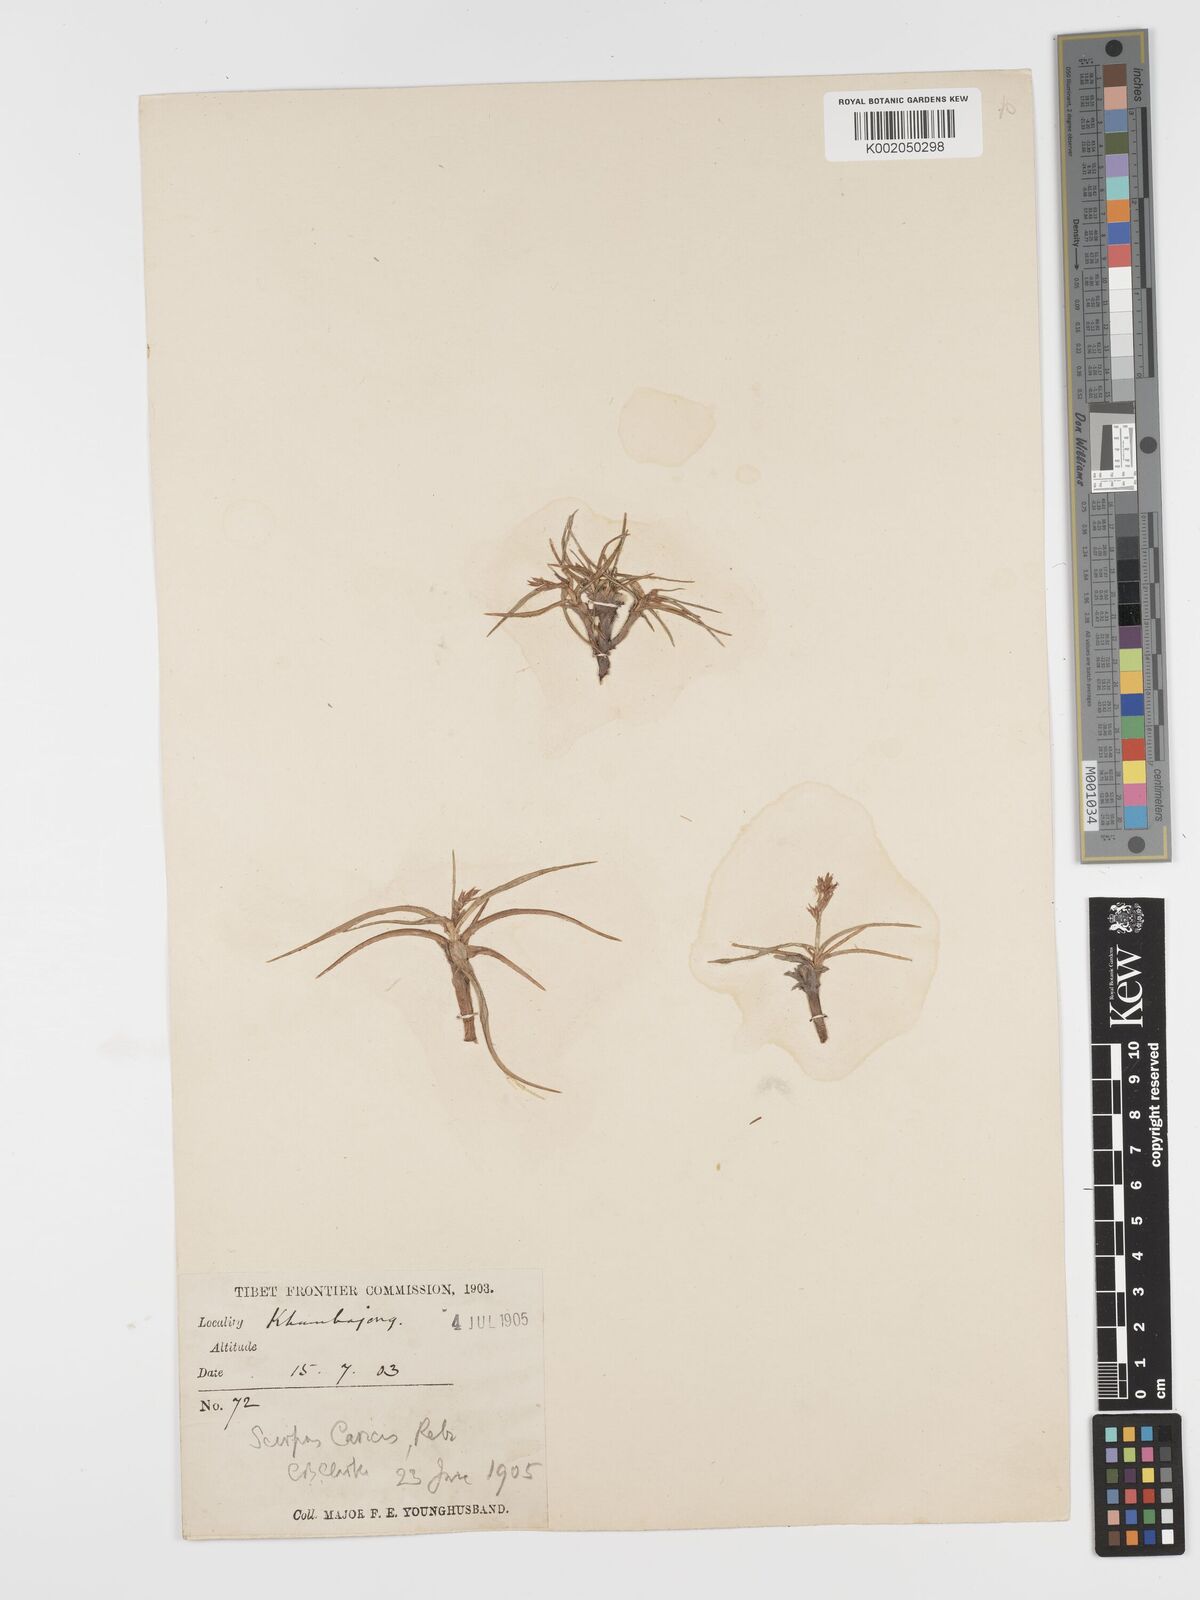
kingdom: Plantae
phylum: Tracheophyta
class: Liliopsida
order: Poales
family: Cyperaceae
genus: Blysmus
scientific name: Blysmus compressus
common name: Flat-sedge
